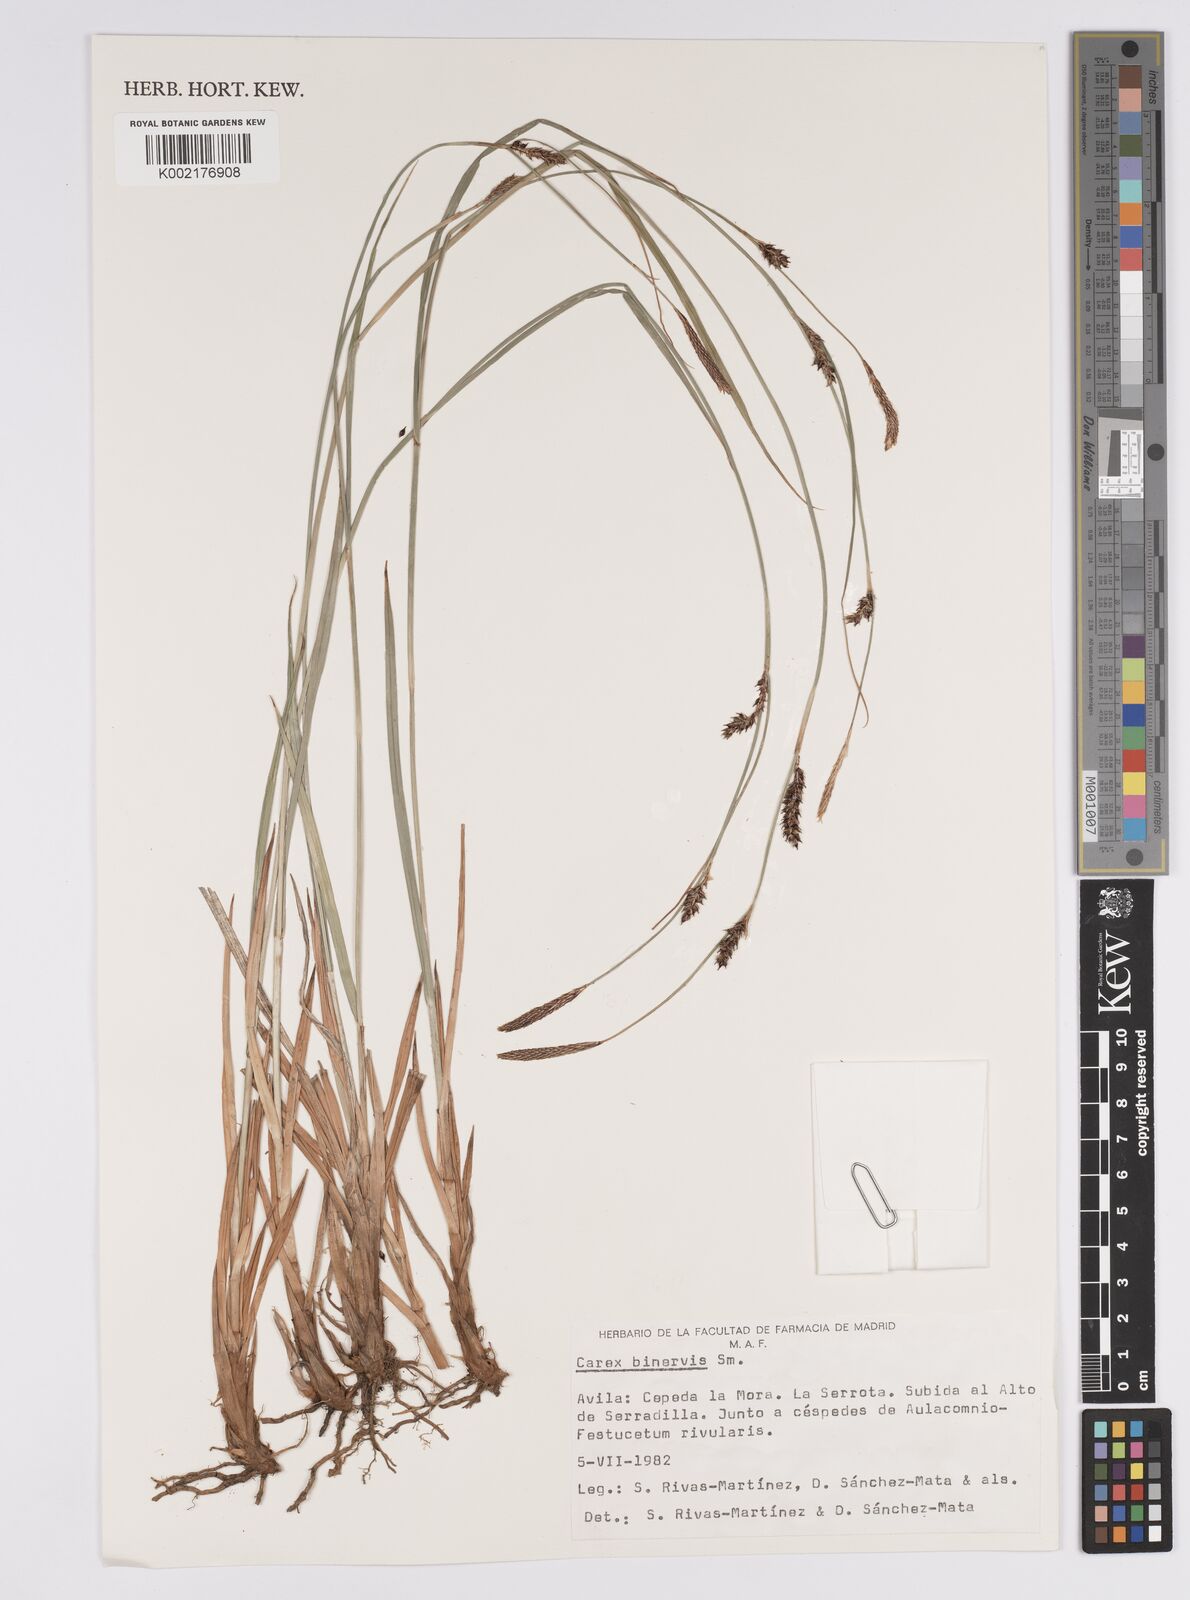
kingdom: Plantae
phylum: Tracheophyta
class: Liliopsida
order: Poales
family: Cyperaceae
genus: Carex
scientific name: Carex binervis
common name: Green-ribbed sedge
